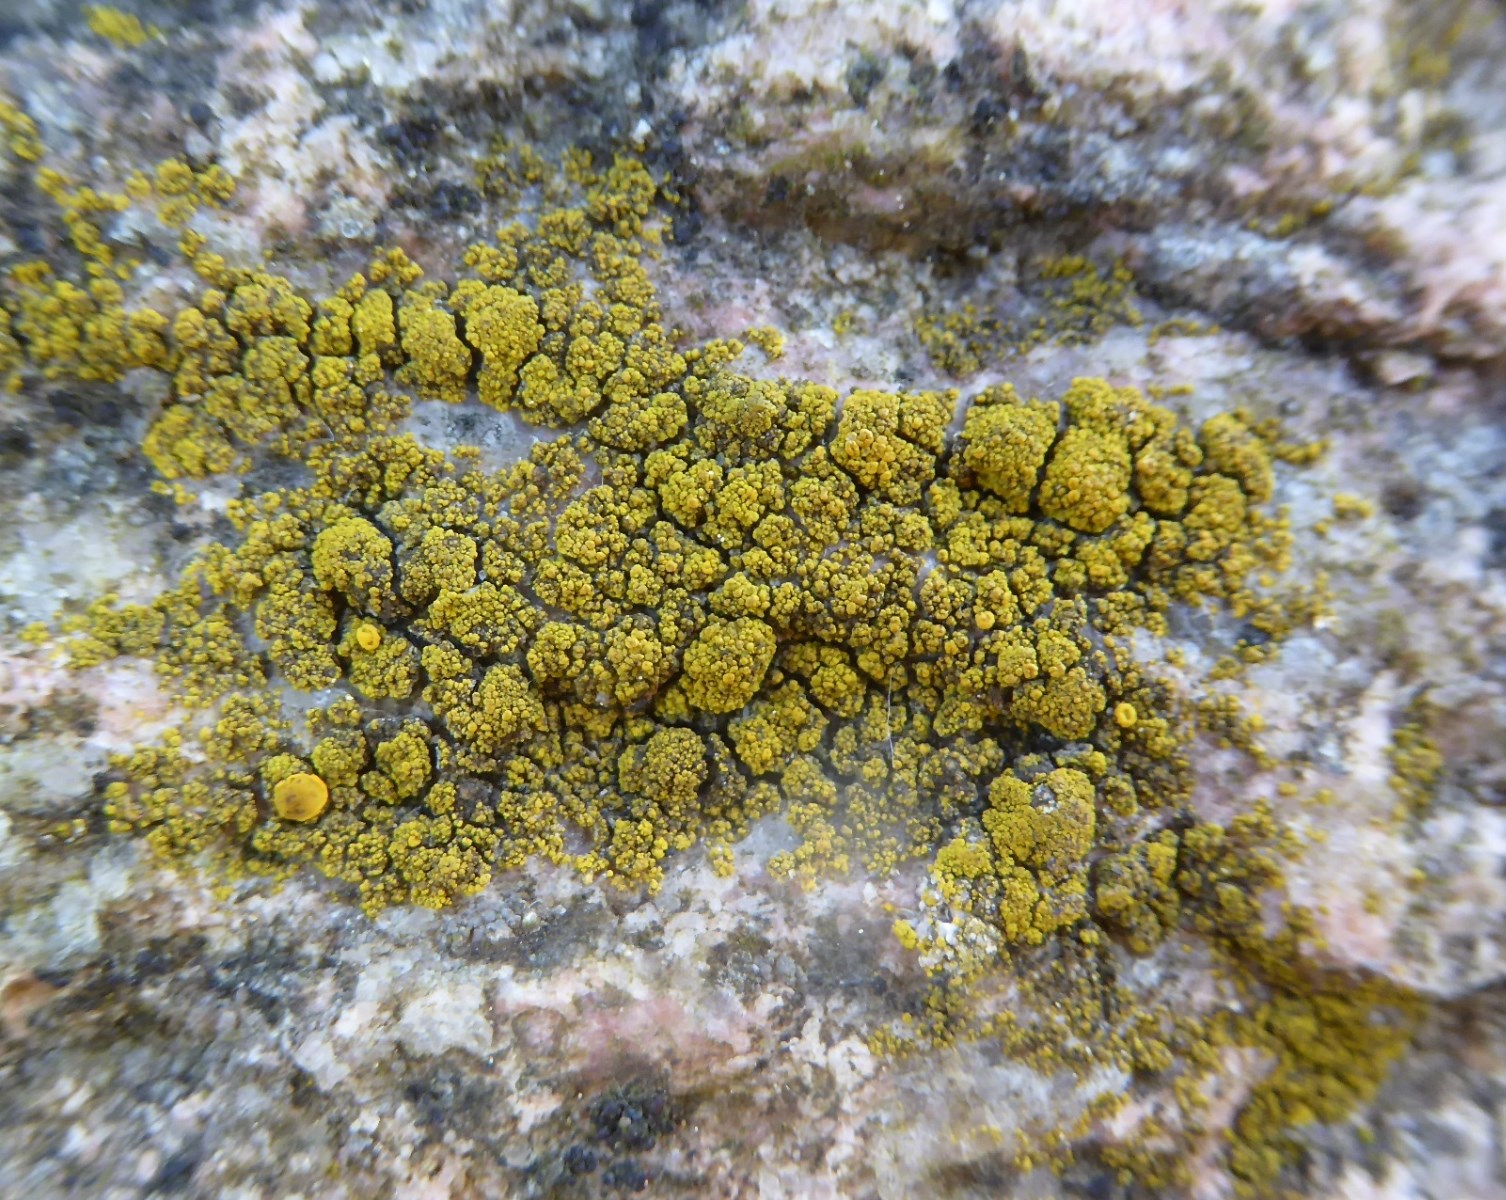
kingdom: Fungi
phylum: Ascomycota
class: Candelariomycetes
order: Candelariales
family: Candelariaceae
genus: Candelariella
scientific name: Candelariella vitellina
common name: almindelig æggeblommelav
